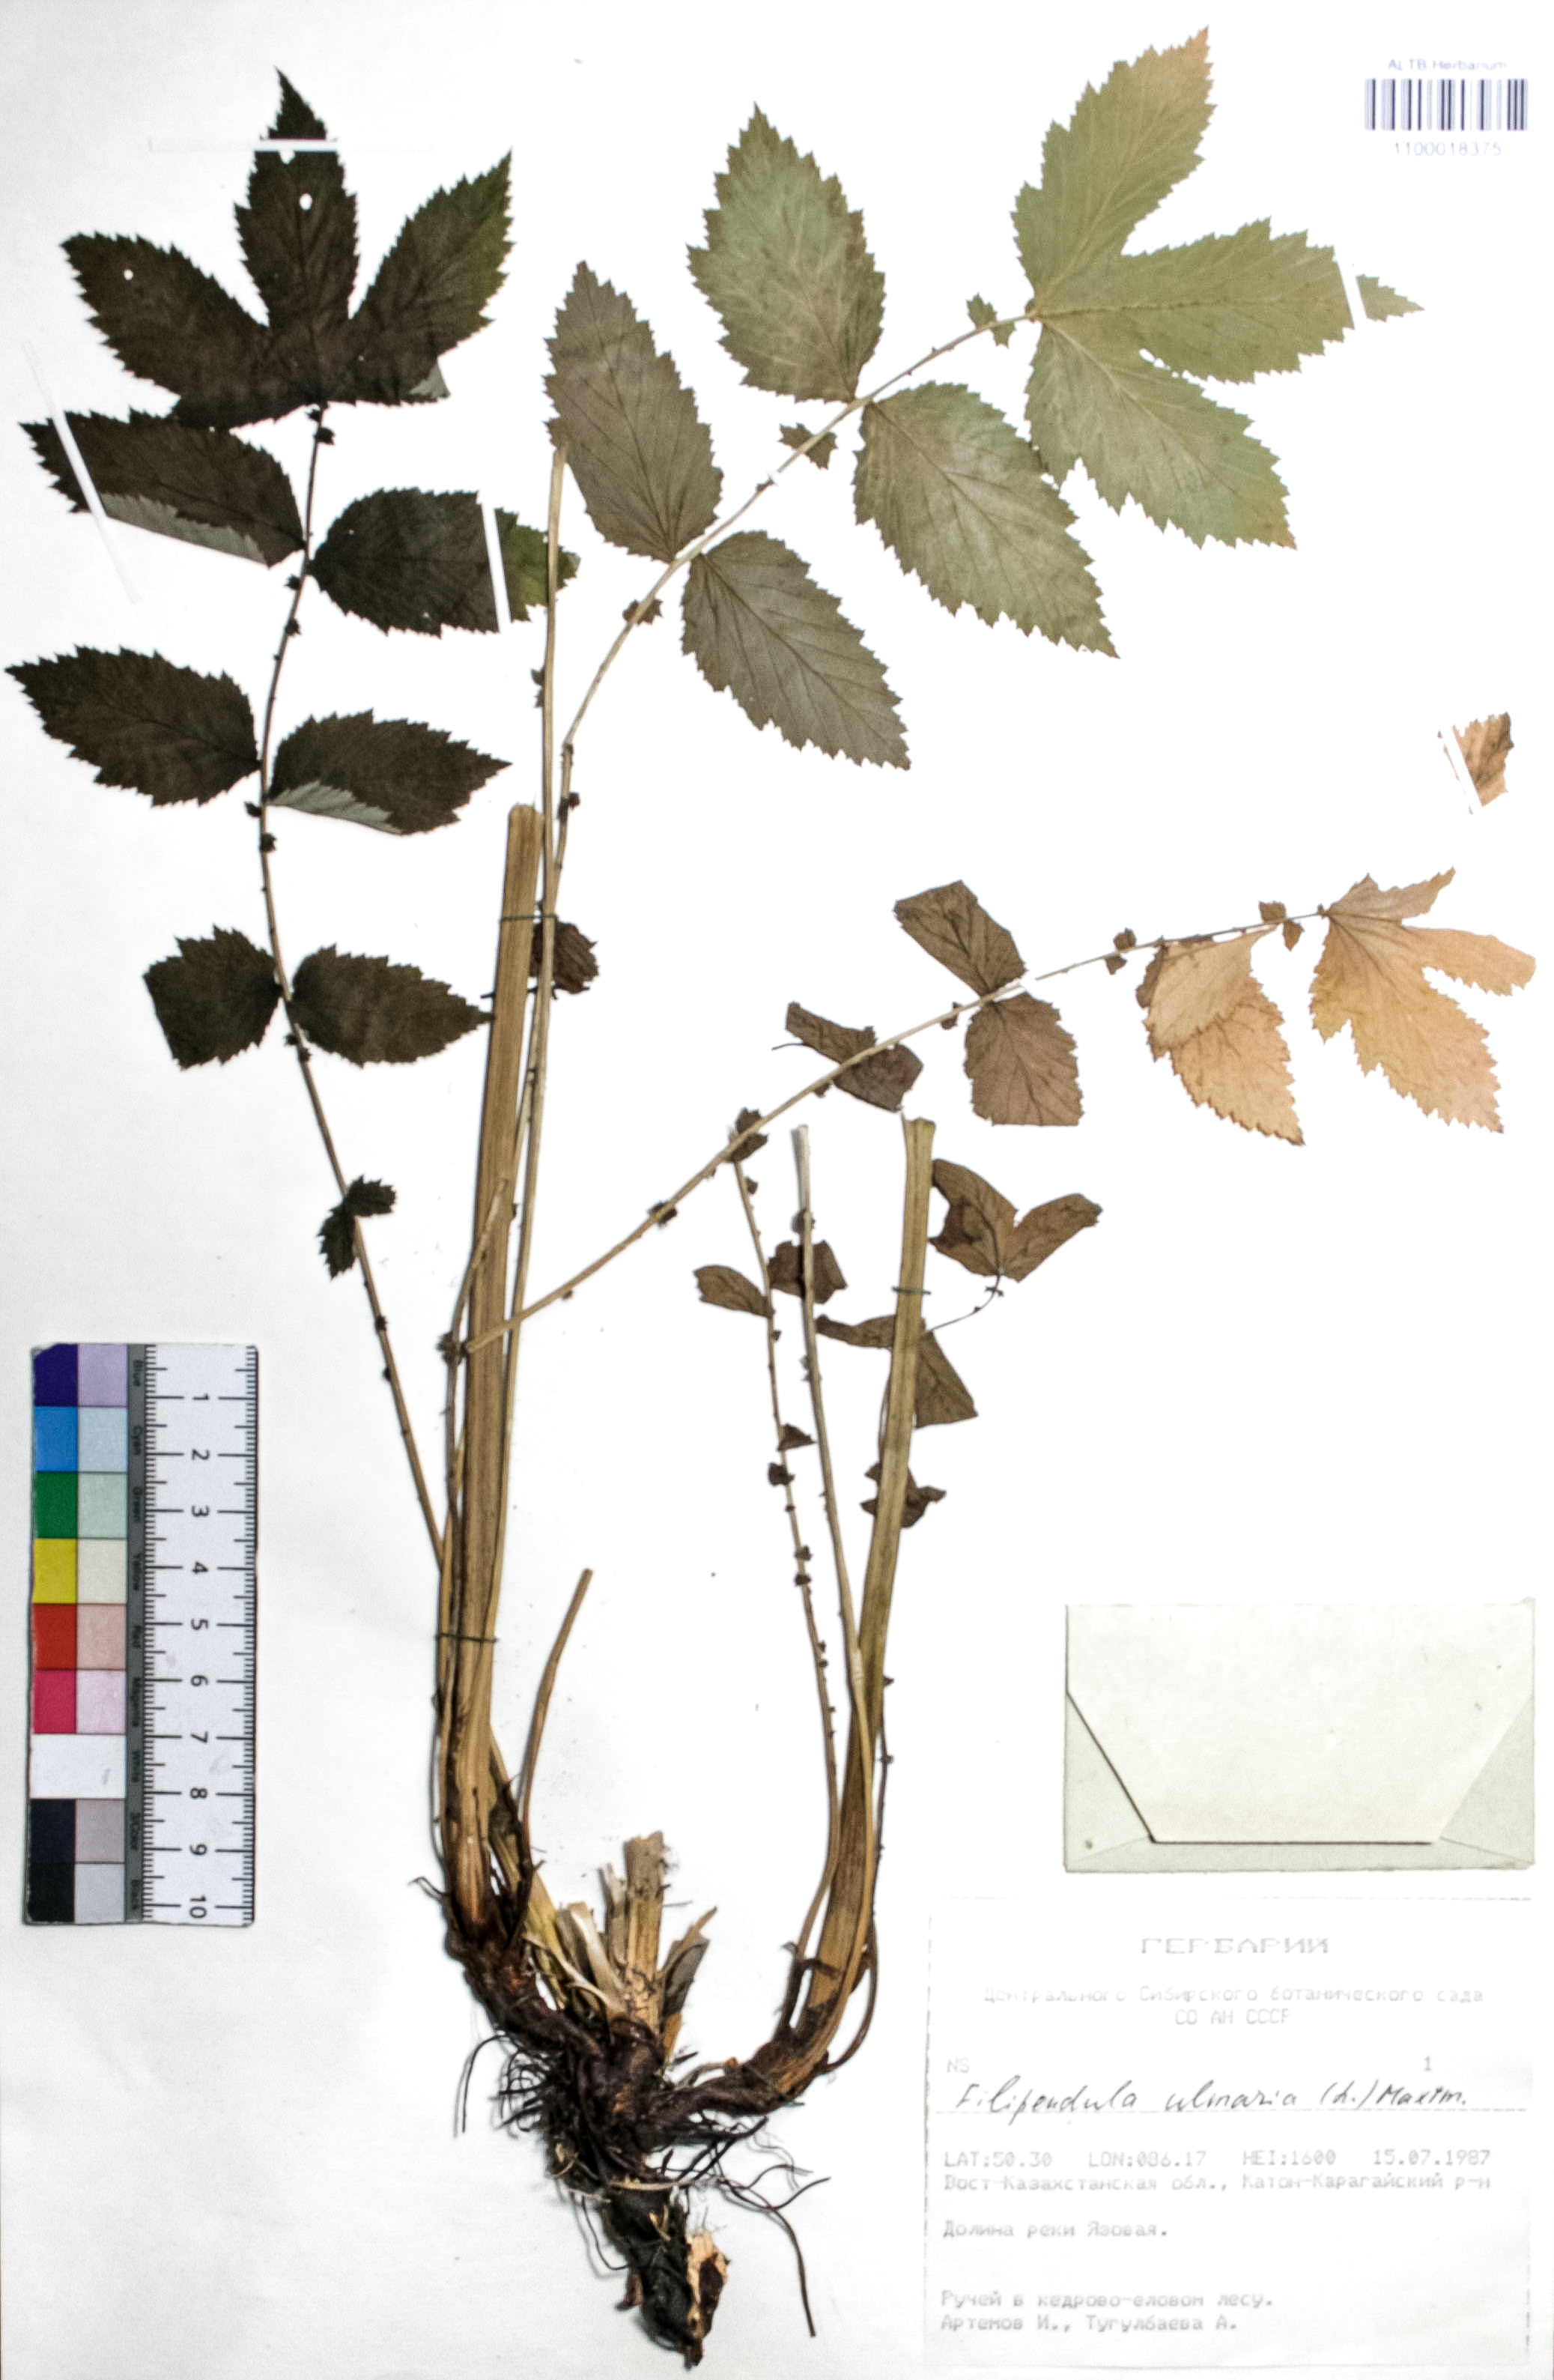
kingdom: Plantae
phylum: Tracheophyta
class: Magnoliopsida
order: Rosales
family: Rosaceae
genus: Filipendula
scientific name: Filipendula ulmaria
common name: Meadowsweet
